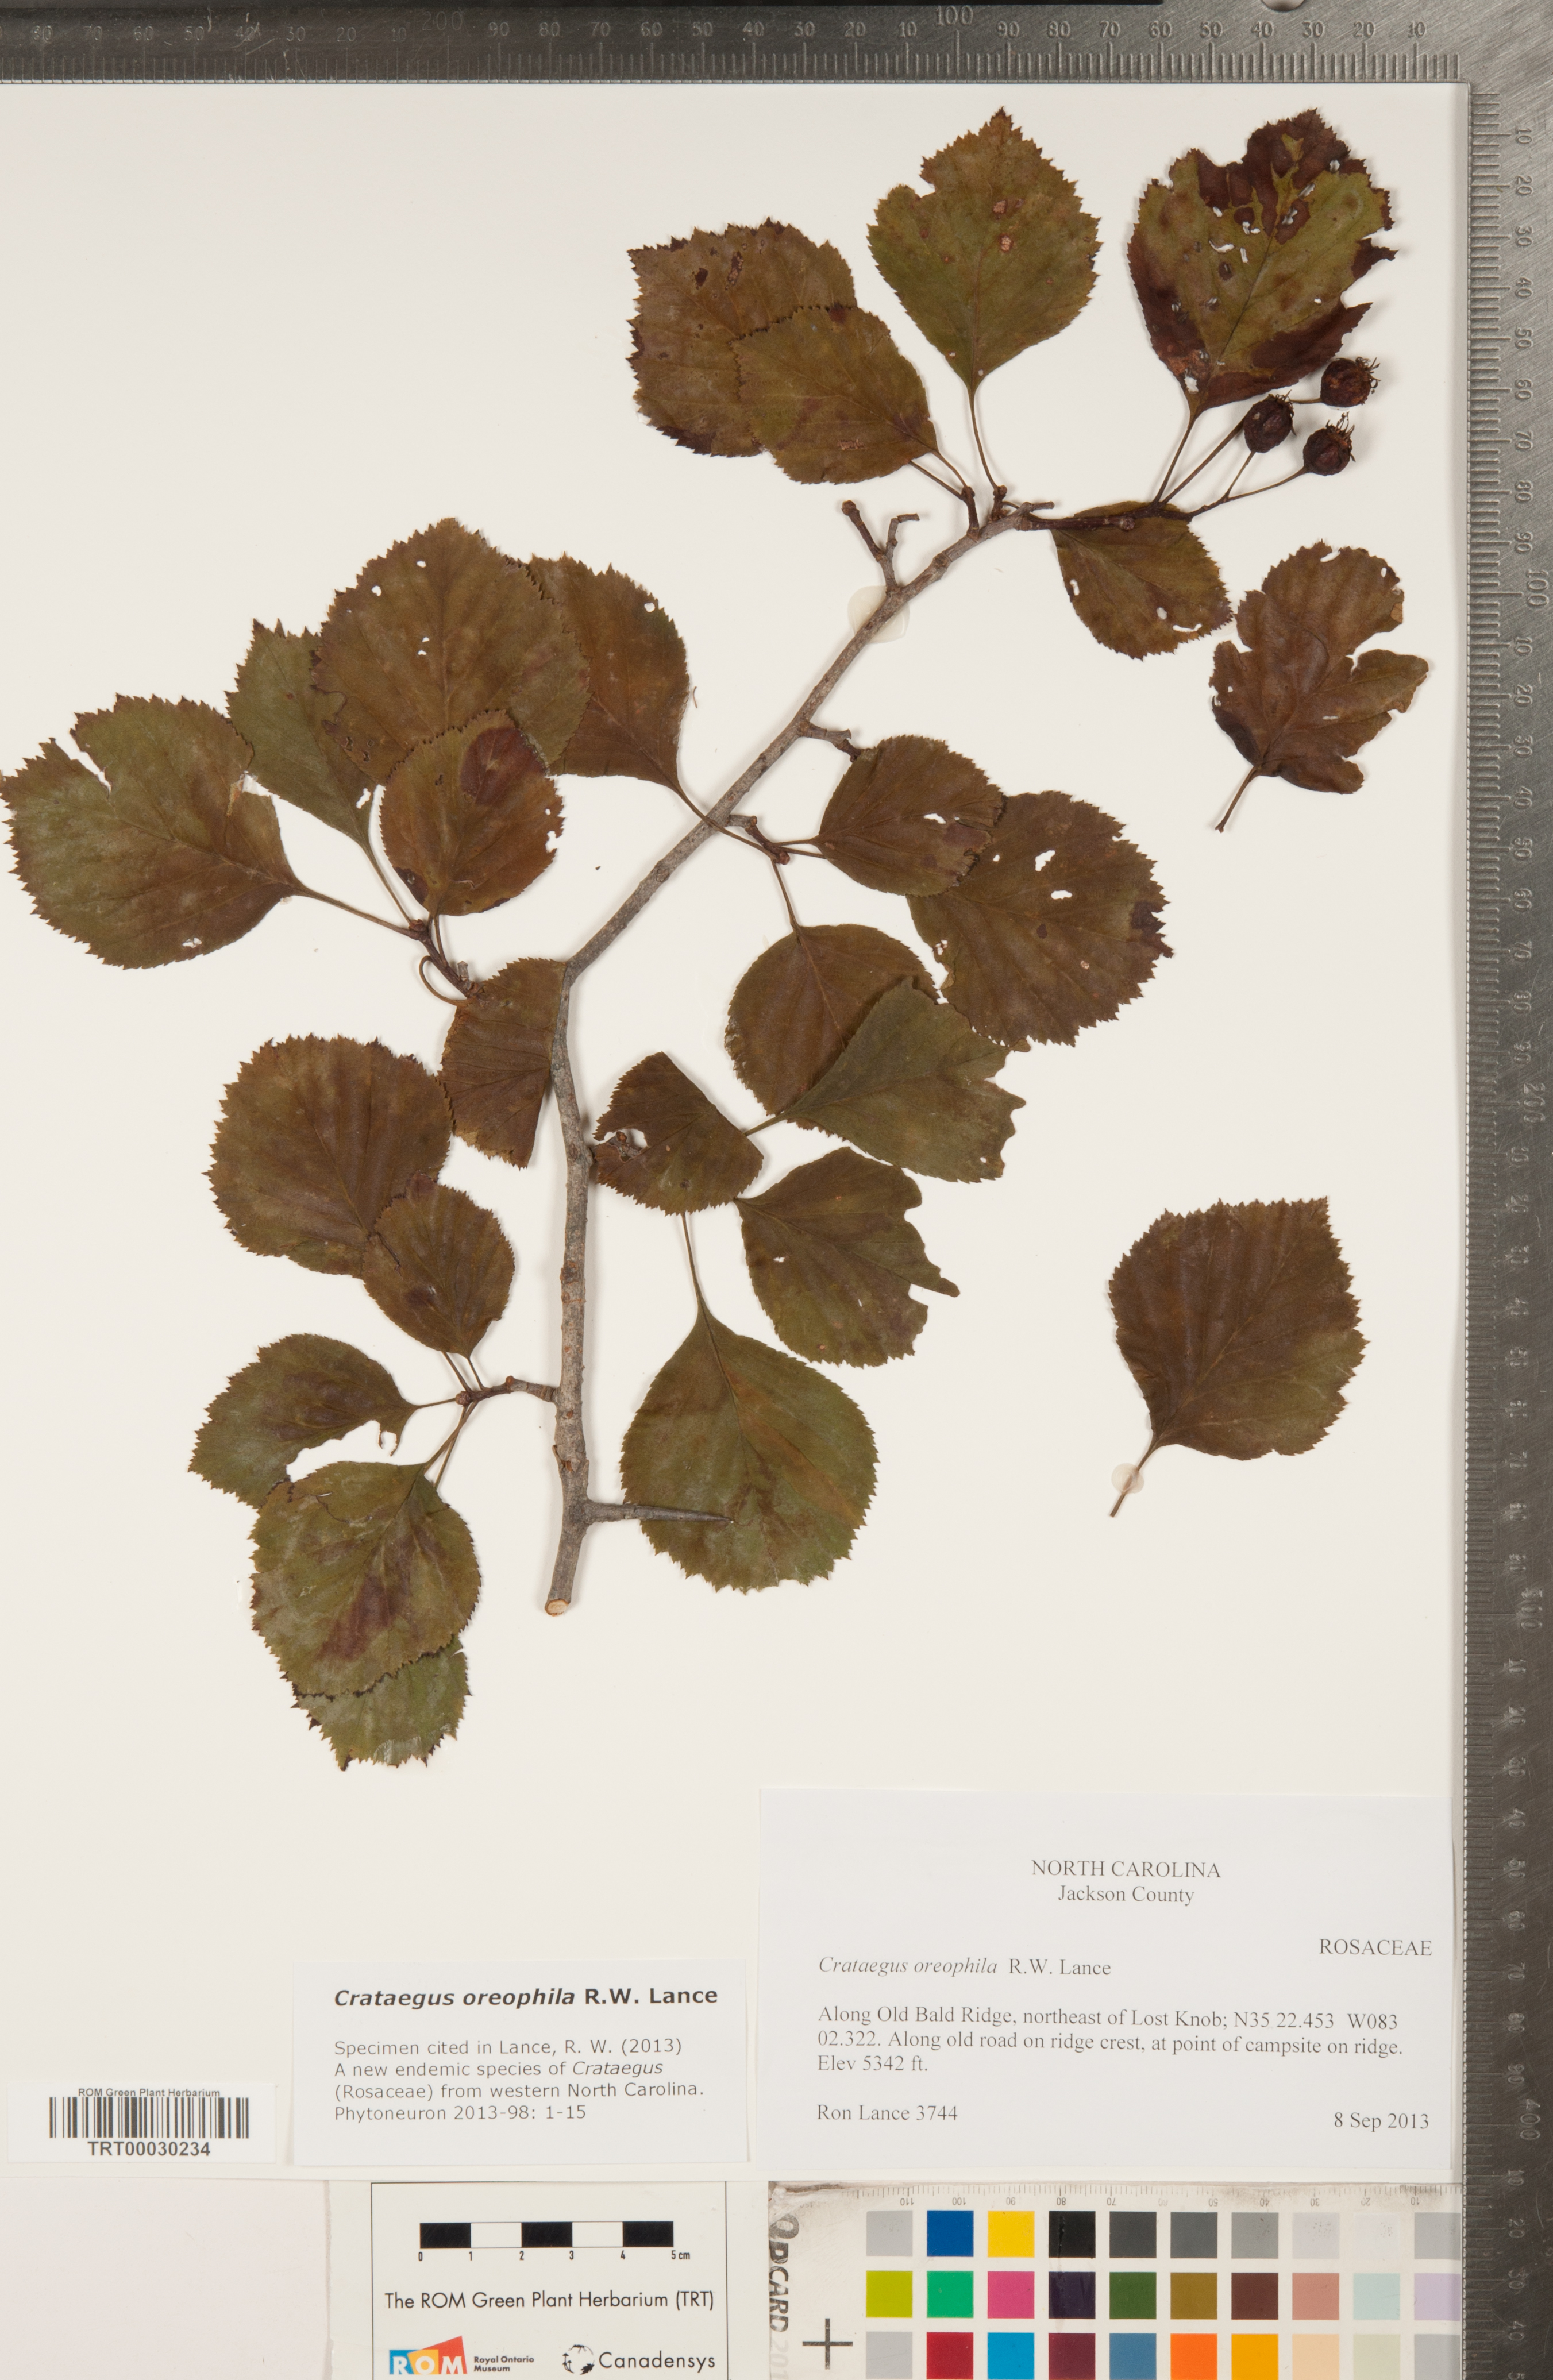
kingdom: Plantae
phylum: Tracheophyta
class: Magnoliopsida
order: Rosales
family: Rosaceae
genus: Crataegus
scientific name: Crataegus oreophila
